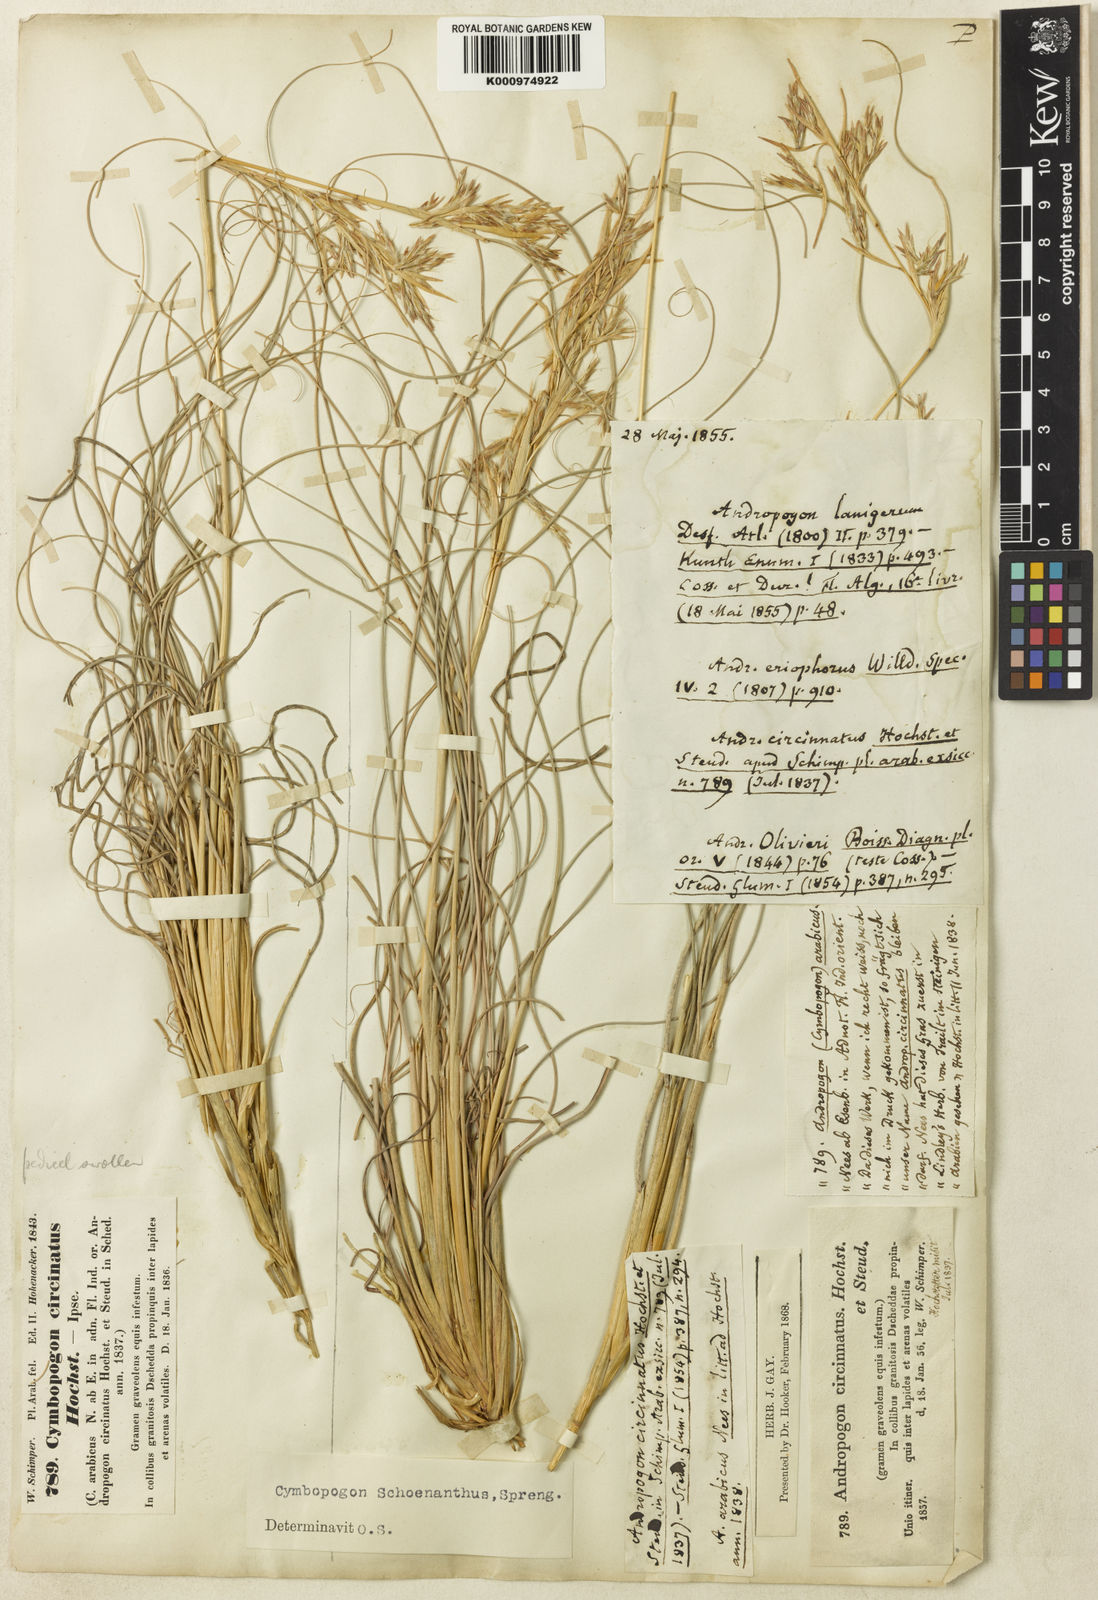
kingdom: Plantae
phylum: Tracheophyta
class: Liliopsida
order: Poales
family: Poaceae
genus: Cymbopogon
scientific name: Cymbopogon schoenanthus
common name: Geranium grass
